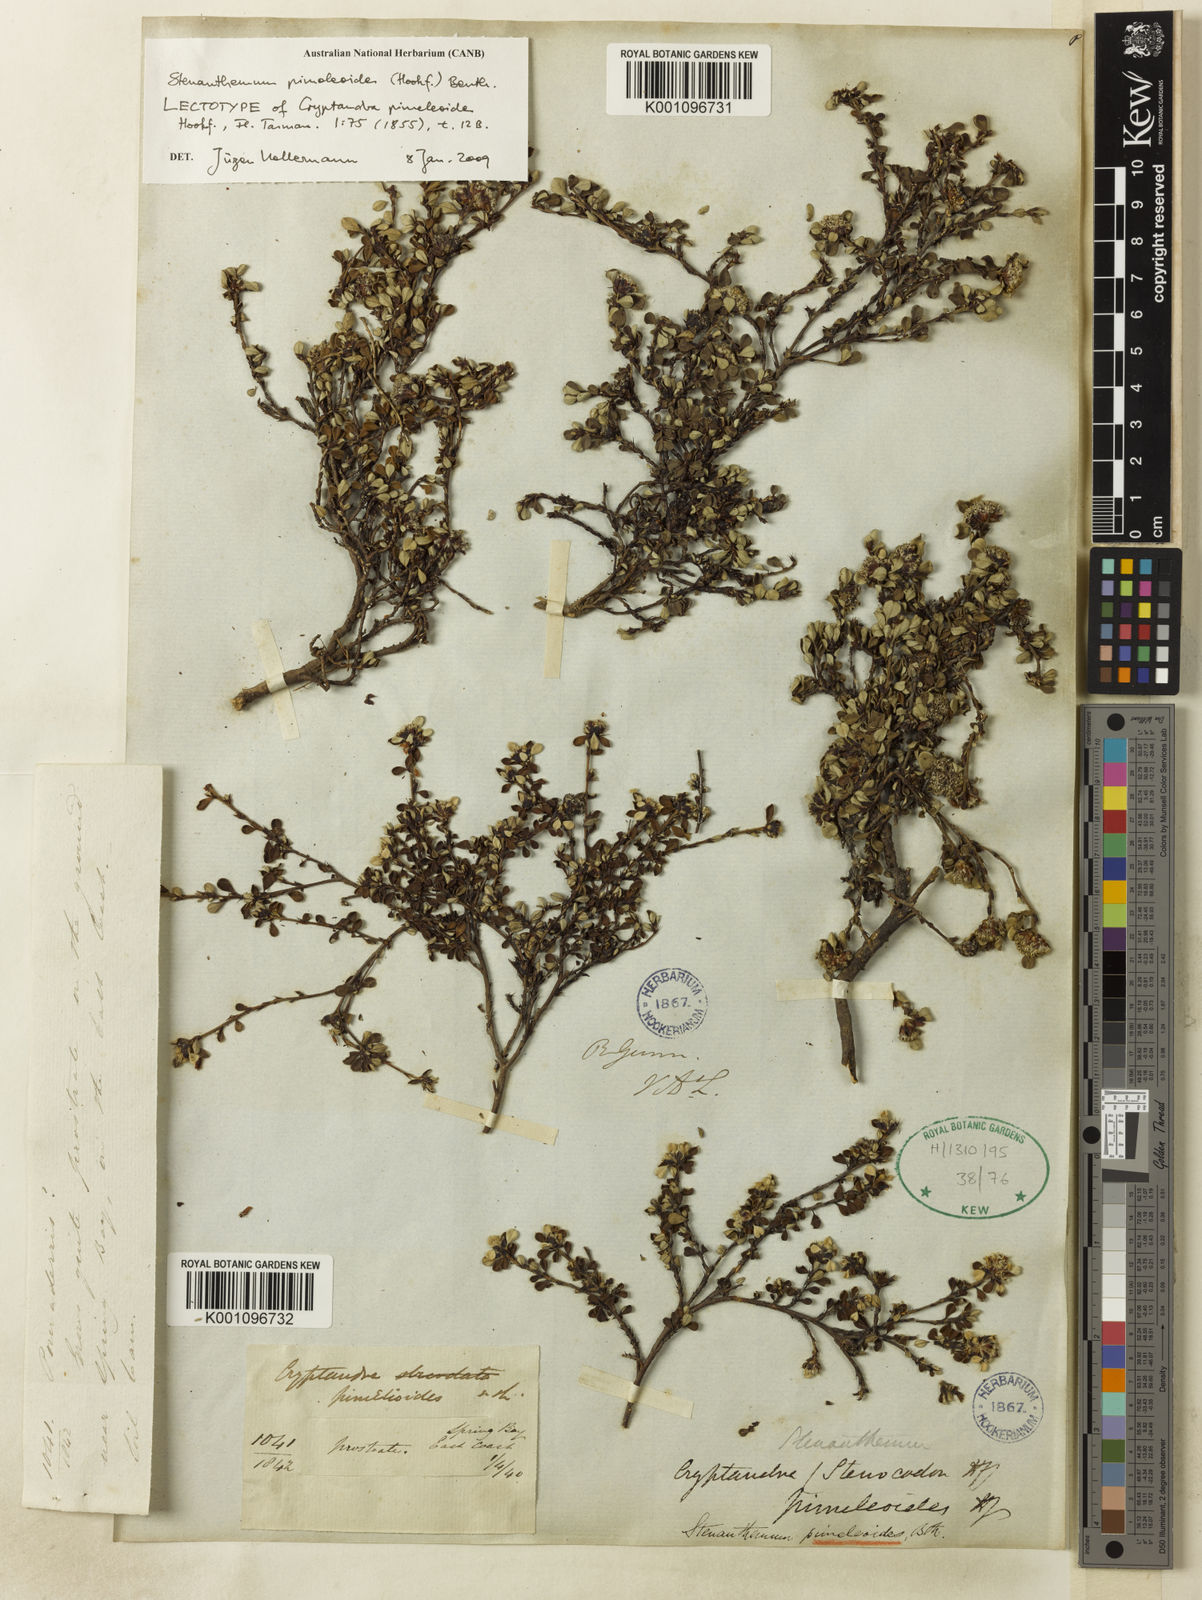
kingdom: Plantae
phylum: Tracheophyta
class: Magnoliopsida
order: Rosales
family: Rhamnaceae
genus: Stenanthemum
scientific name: Stenanthemum
